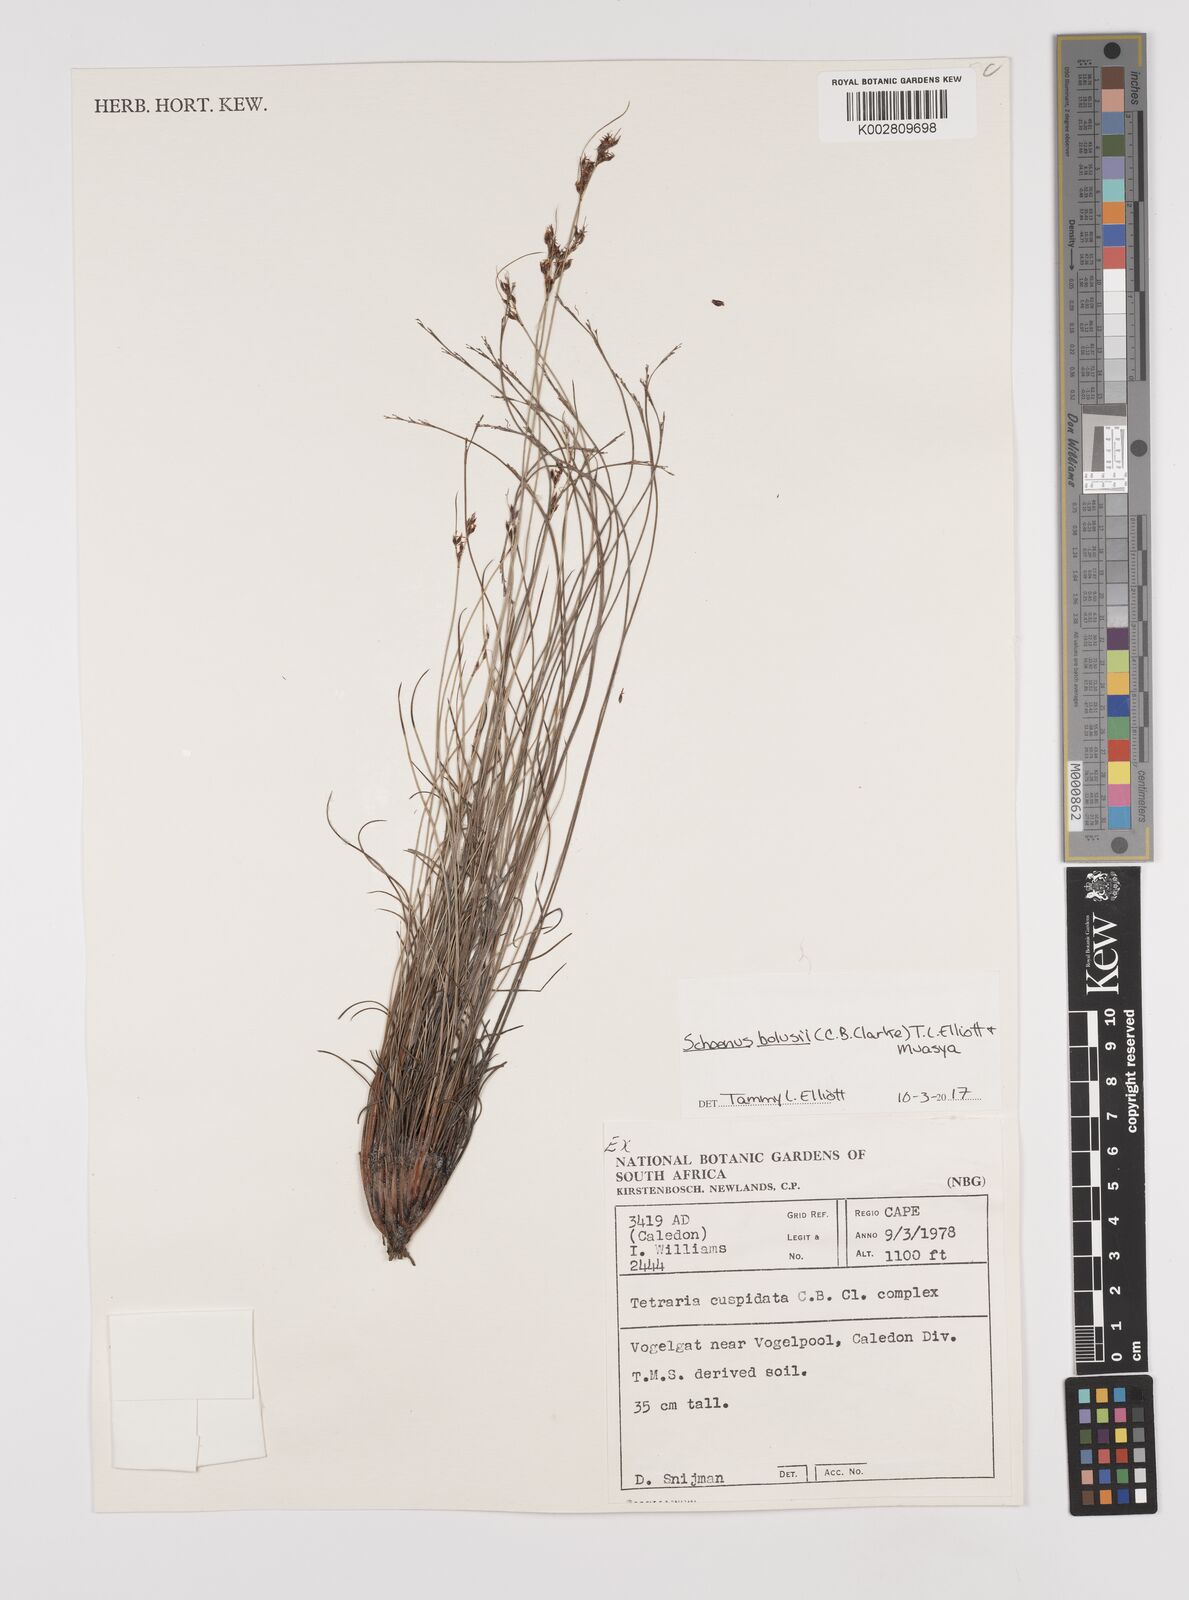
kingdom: Plantae
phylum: Tracheophyta
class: Liliopsida
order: Poales
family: Cyperaceae
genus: Schoenus
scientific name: Schoenus bolusii
